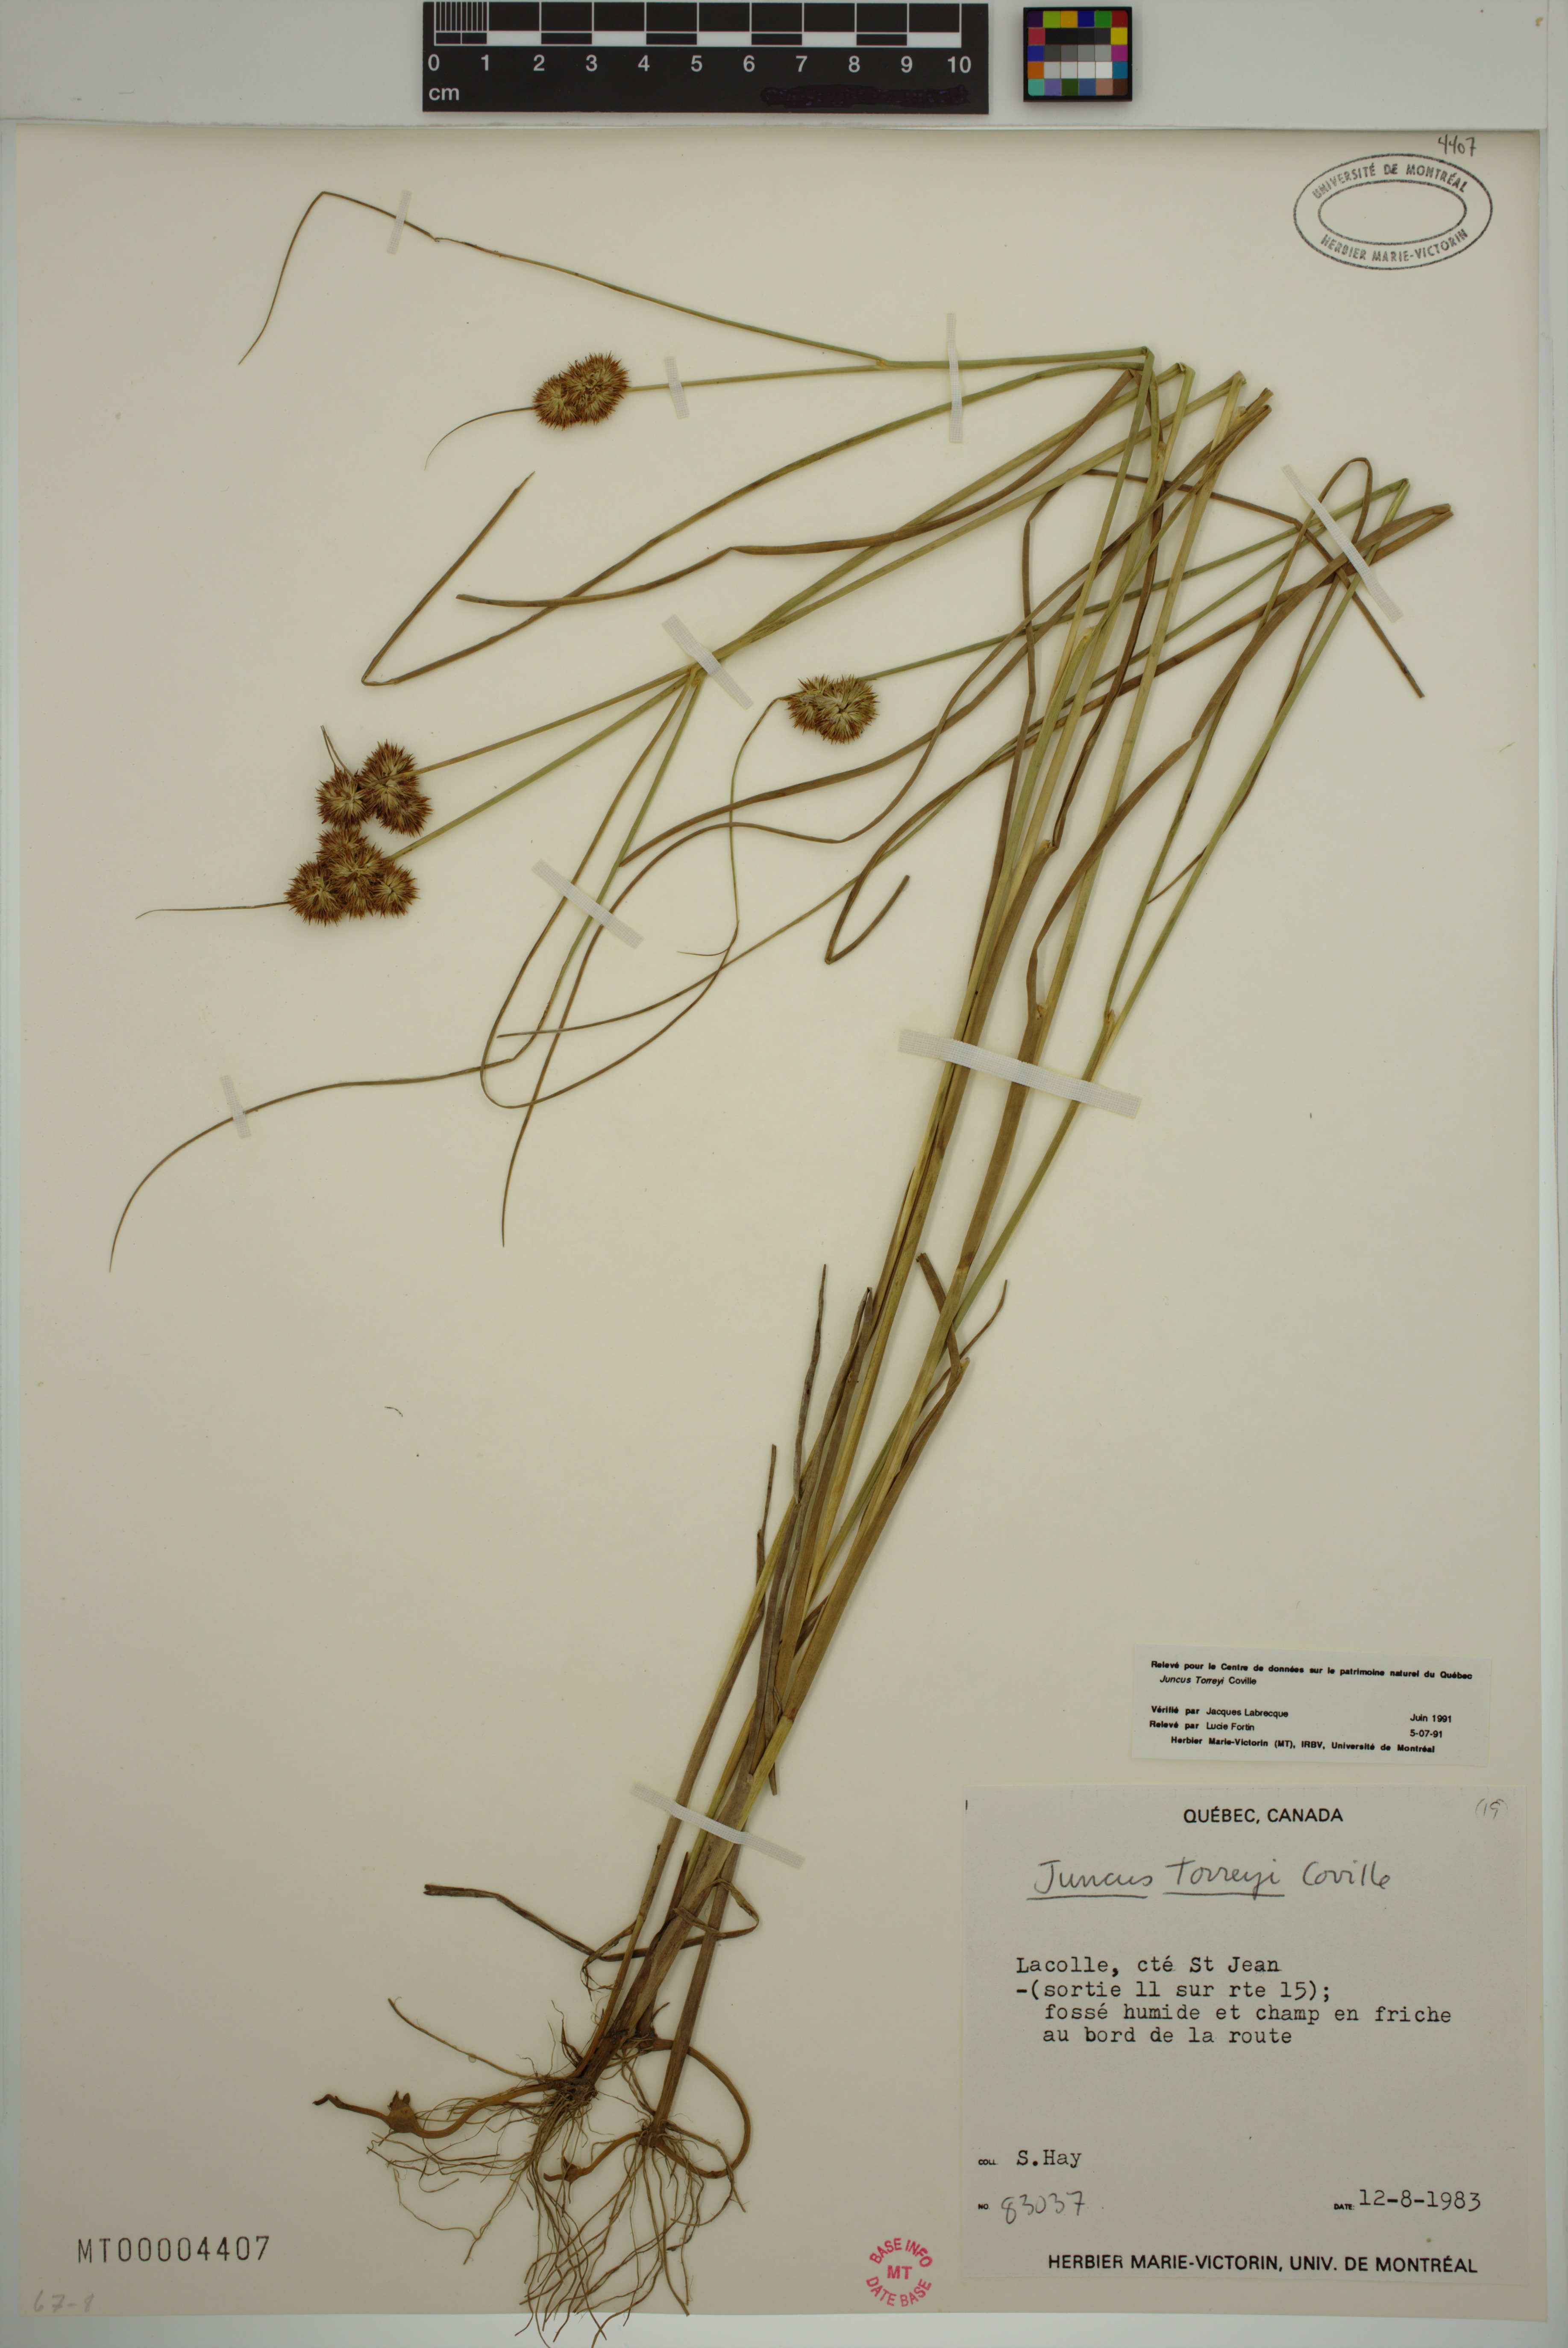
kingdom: Plantae
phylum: Tracheophyta
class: Liliopsida
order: Poales
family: Juncaceae
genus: Juncus
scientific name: Juncus torreyi
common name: Torrey's rush
